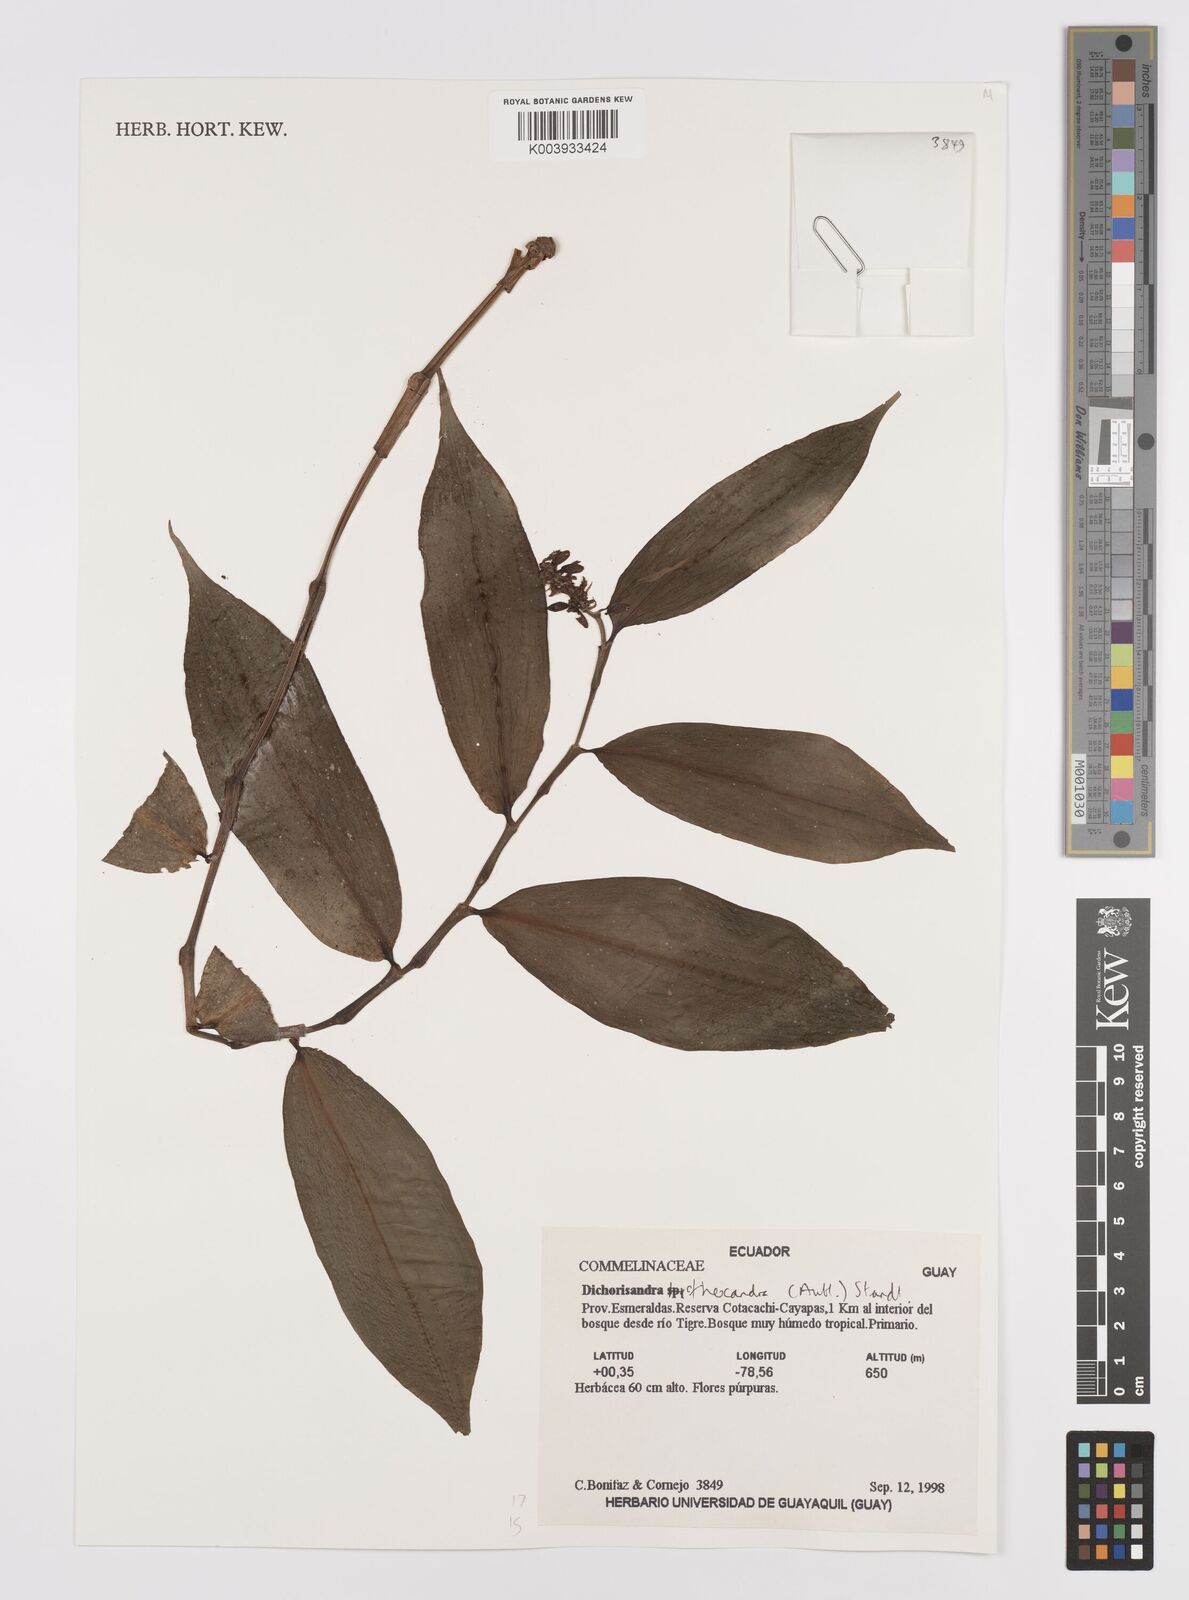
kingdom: Plantae
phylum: Tracheophyta
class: Liliopsida
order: Commelinales
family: Commelinaceae
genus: Dichorisandra
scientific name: Dichorisandra hexandra
